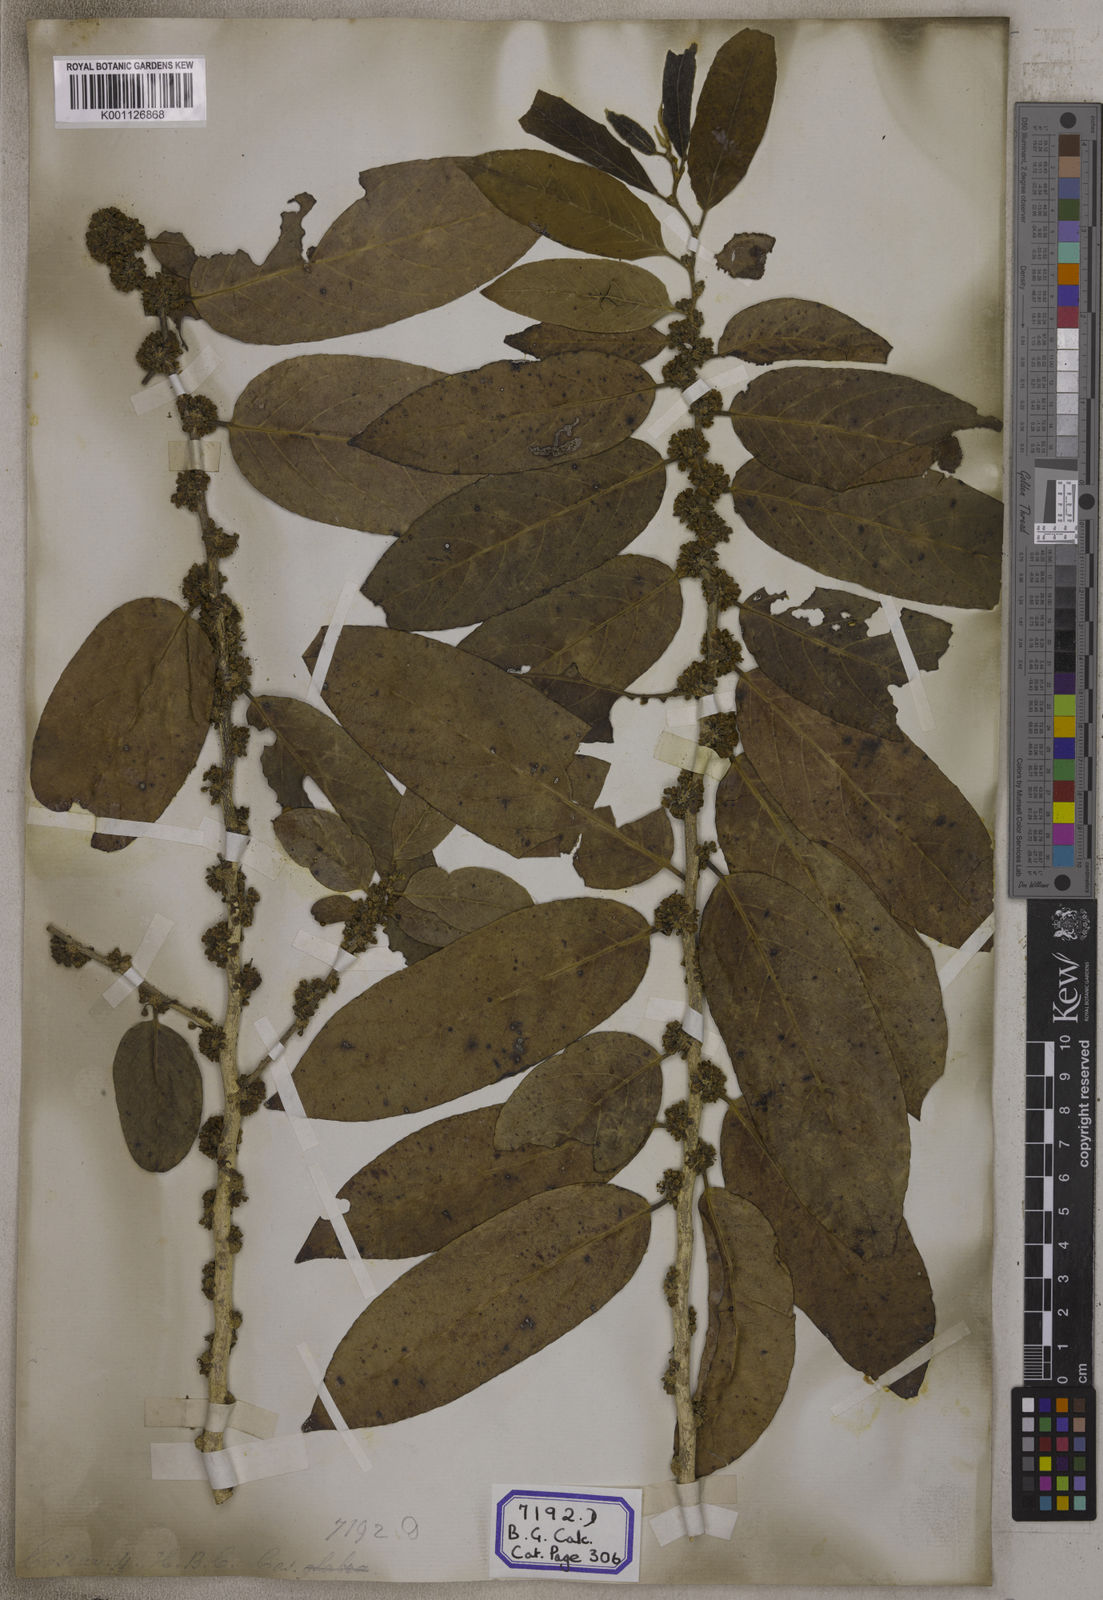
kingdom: Plantae
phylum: Tracheophyta
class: Magnoliopsida
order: Malpighiales
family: Salicaceae
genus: Casearia
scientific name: Casearia
